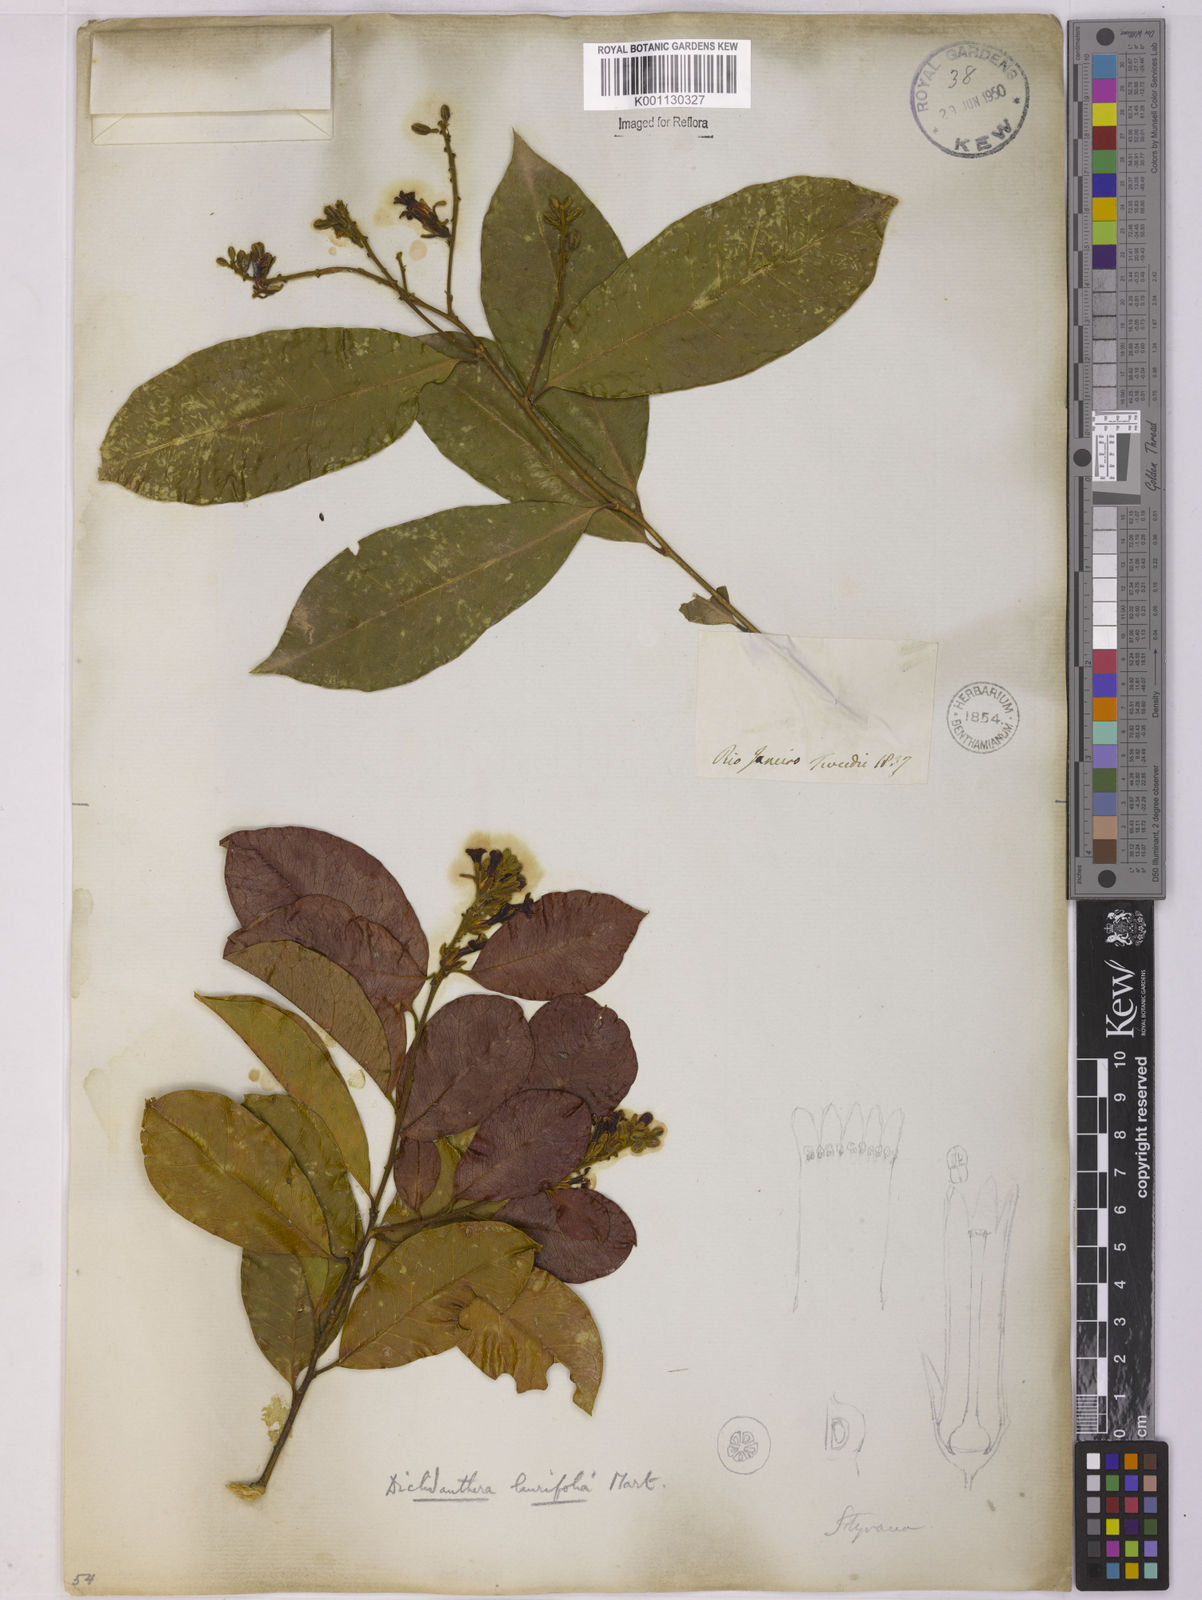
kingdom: Plantae
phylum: Tracheophyta
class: Magnoliopsida
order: Fabales
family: Polygalaceae
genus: Diclidanthera
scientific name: Diclidanthera laurifolia
